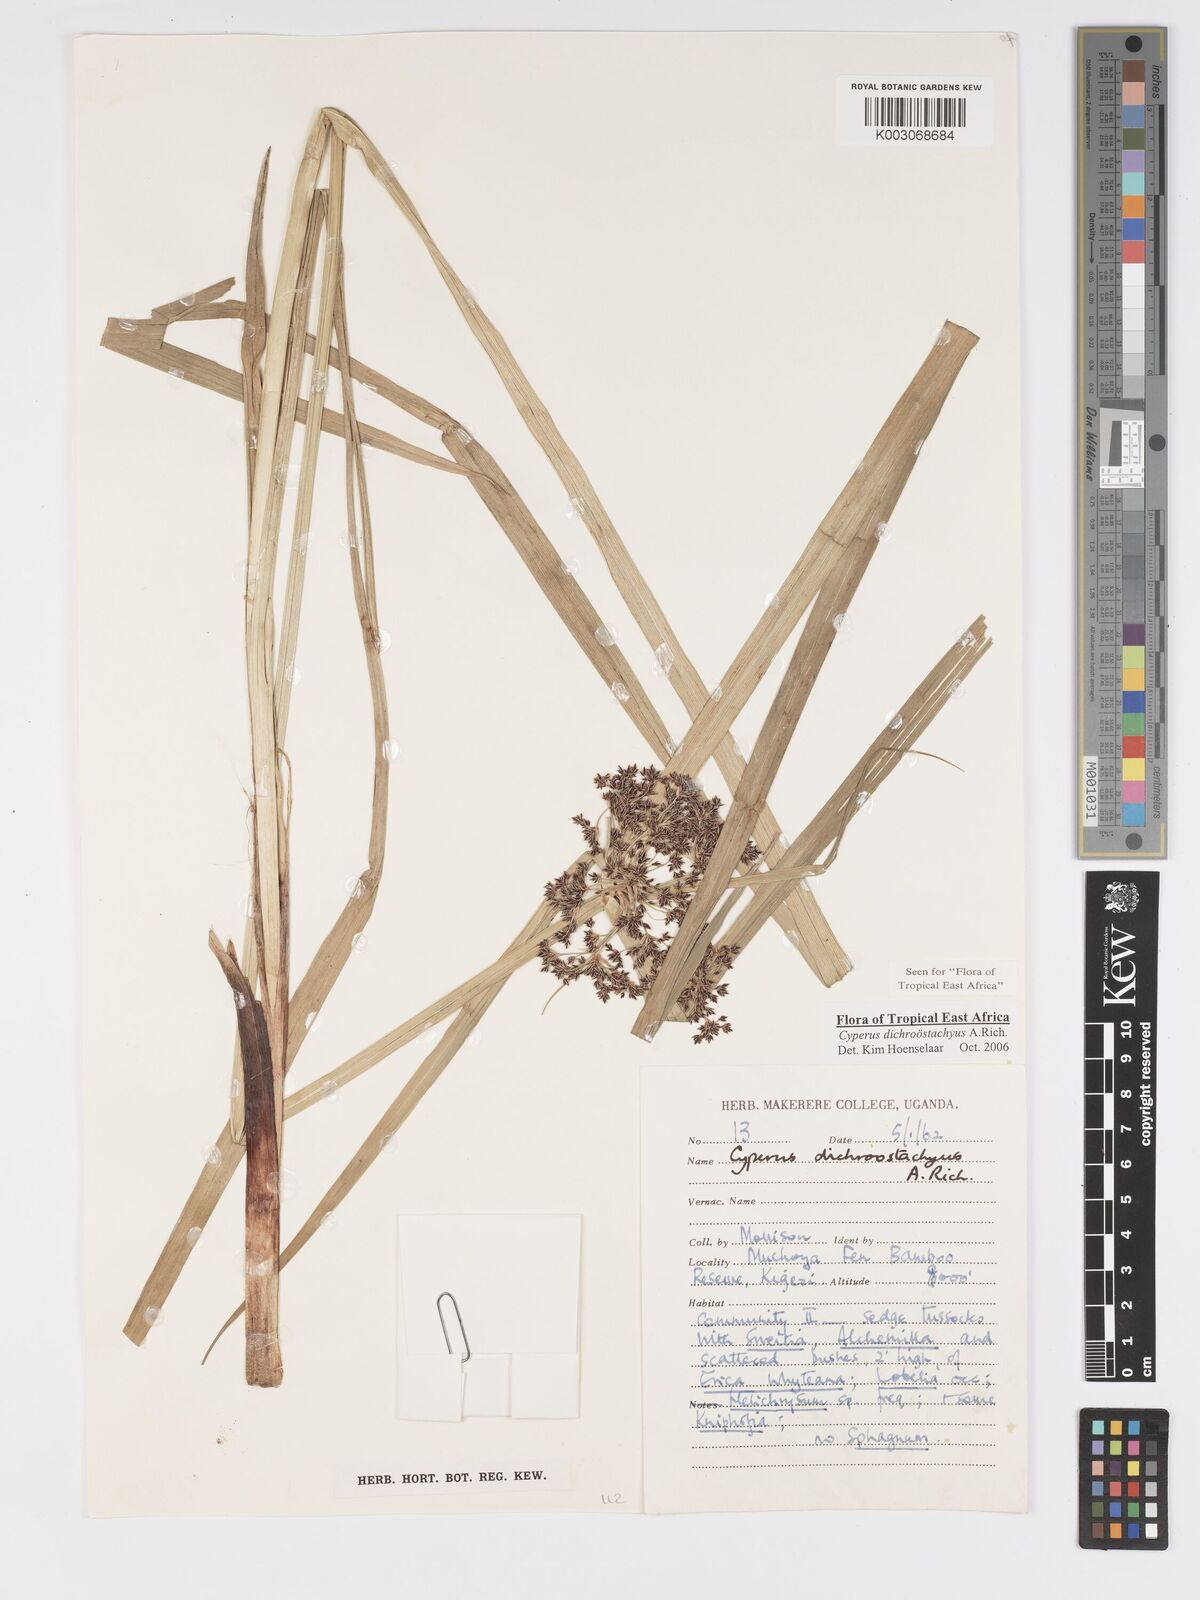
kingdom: Plantae
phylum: Tracheophyta
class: Liliopsida
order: Poales
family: Cyperaceae
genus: Cyperus
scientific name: Cyperus dichrostachyus
